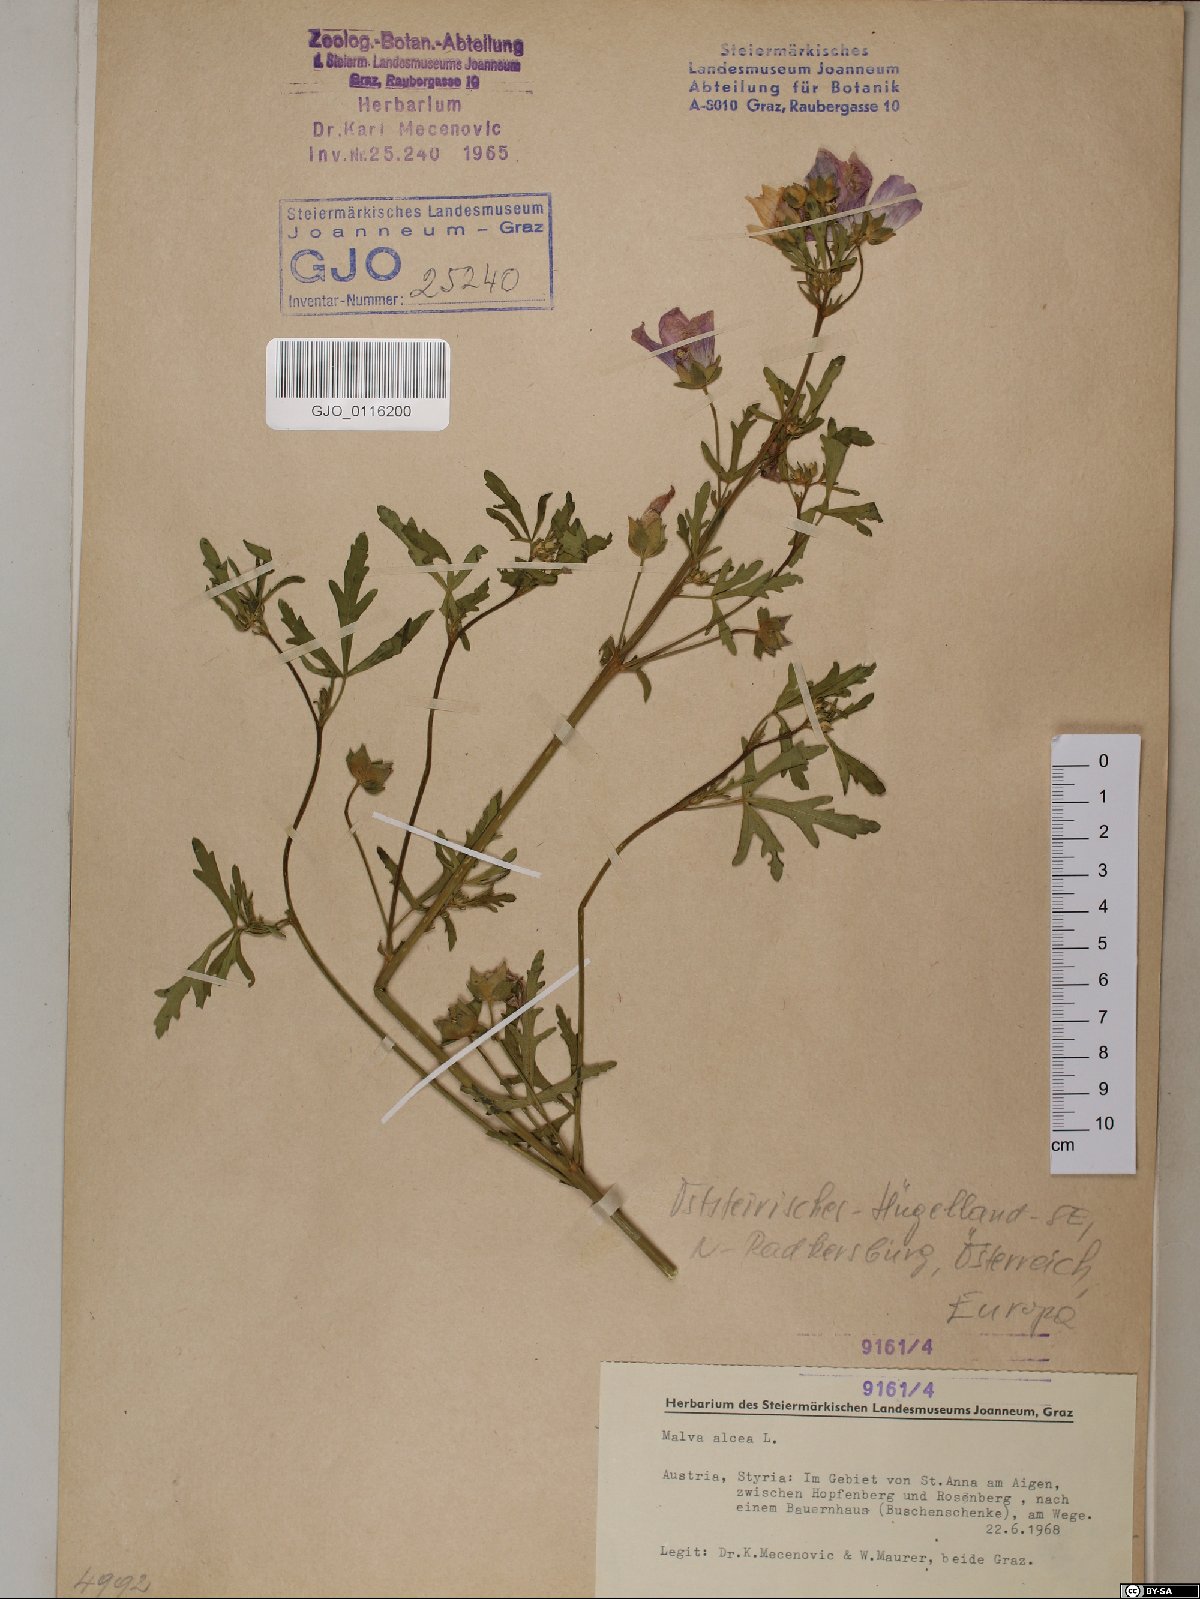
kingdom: Plantae
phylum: Tracheophyta
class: Magnoliopsida
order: Malvales
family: Malvaceae
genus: Malva
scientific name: Malva alcea
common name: Greater musk-mallow
